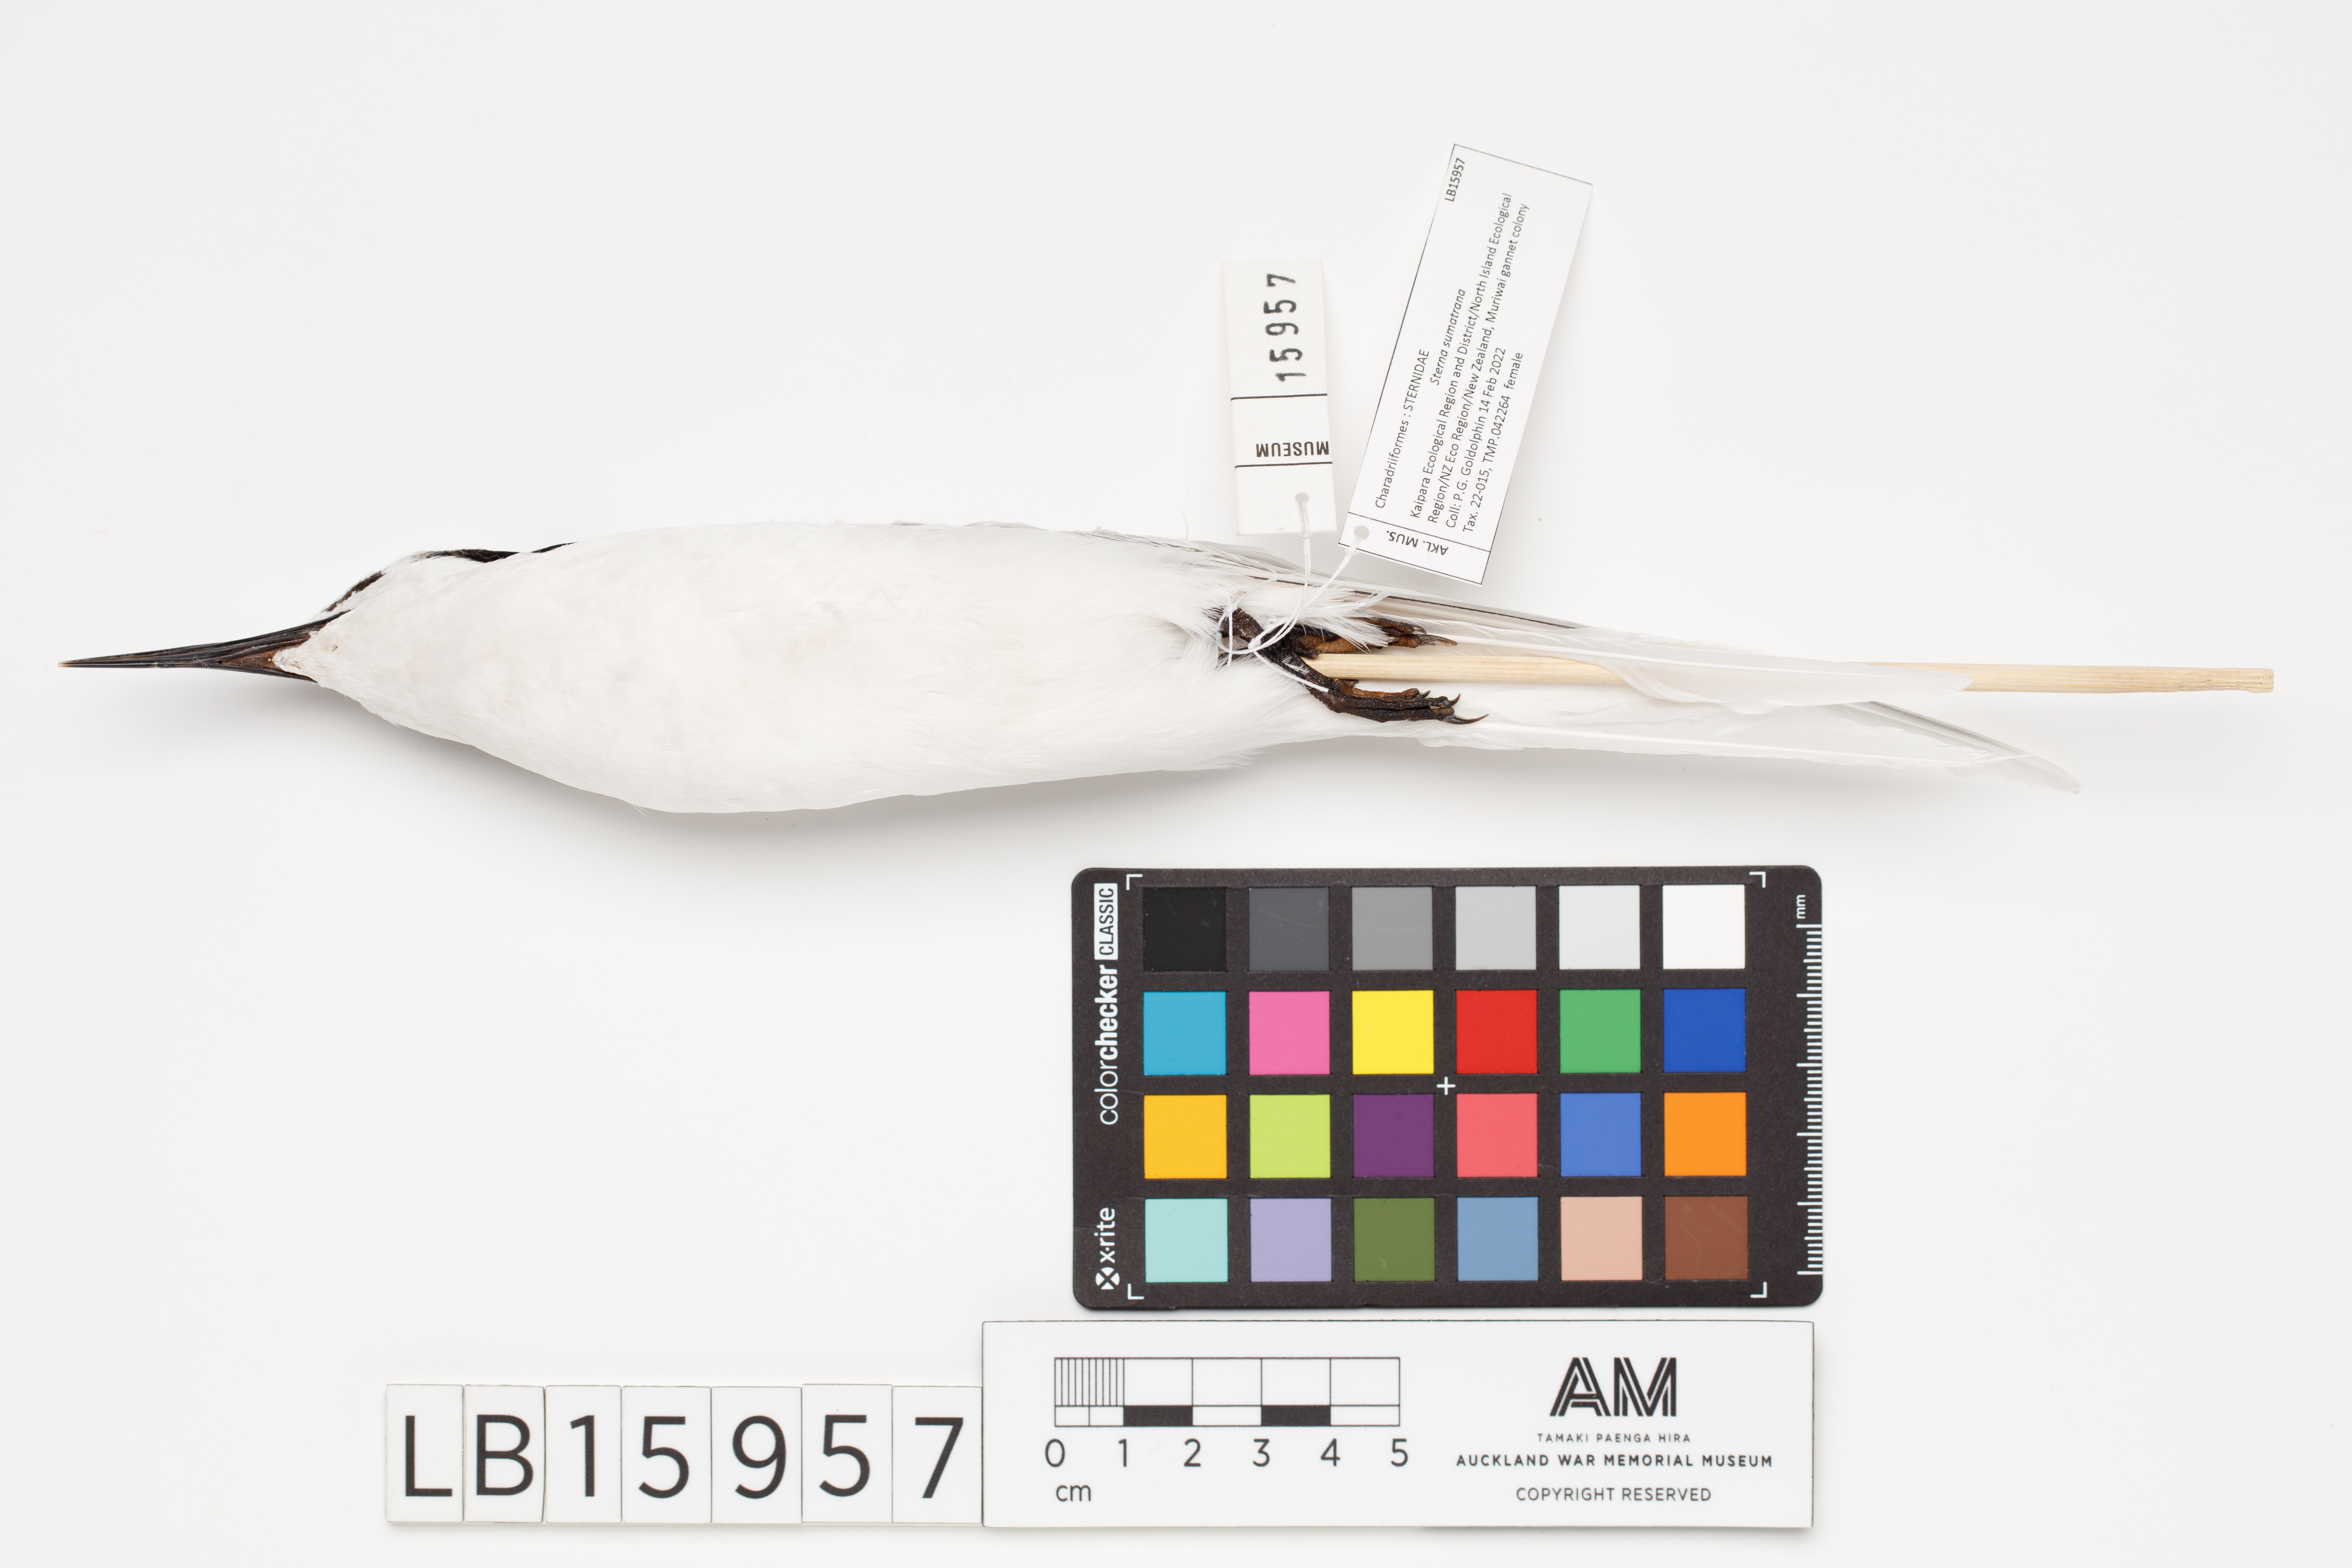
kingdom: Animalia
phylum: Chordata
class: Aves
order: Charadriiformes
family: Laridae
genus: Sterna
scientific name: Sterna sumatrana
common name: Black-naped tern
